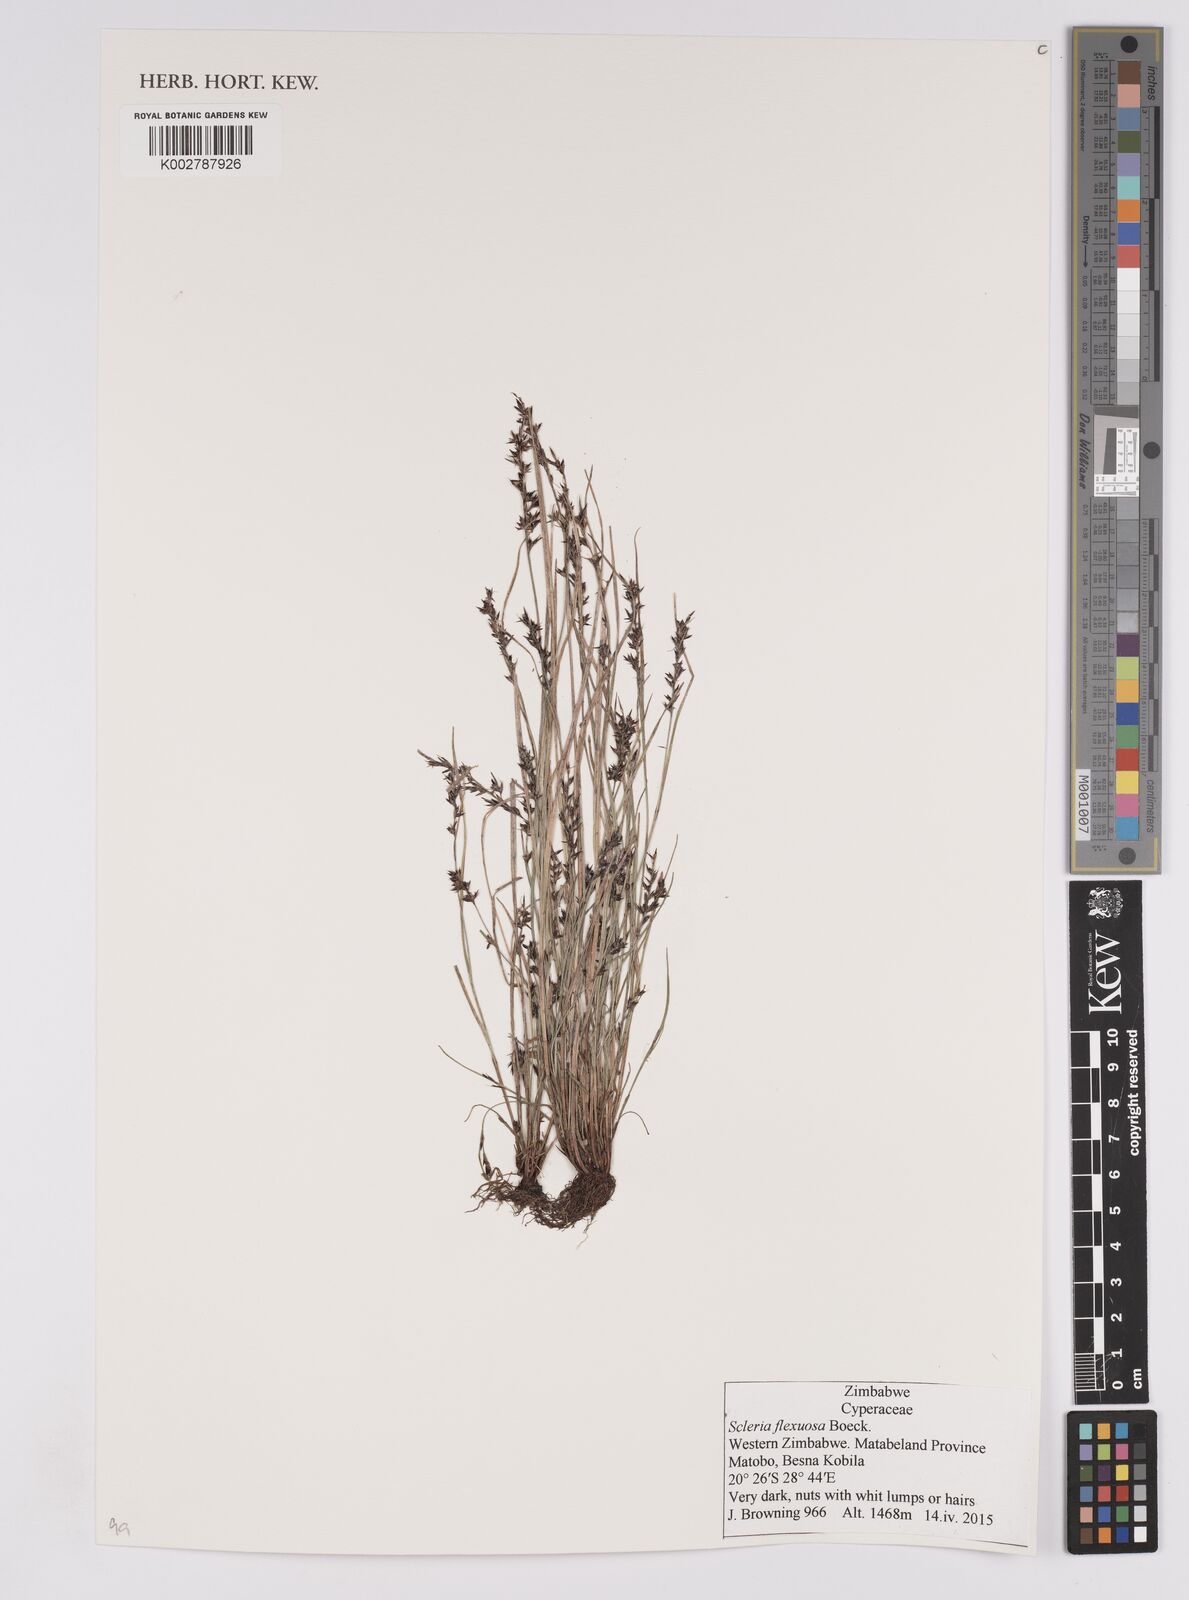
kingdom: Plantae
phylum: Tracheophyta
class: Liliopsida
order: Poales
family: Cyperaceae
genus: Scleria
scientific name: Scleria flexuosa
